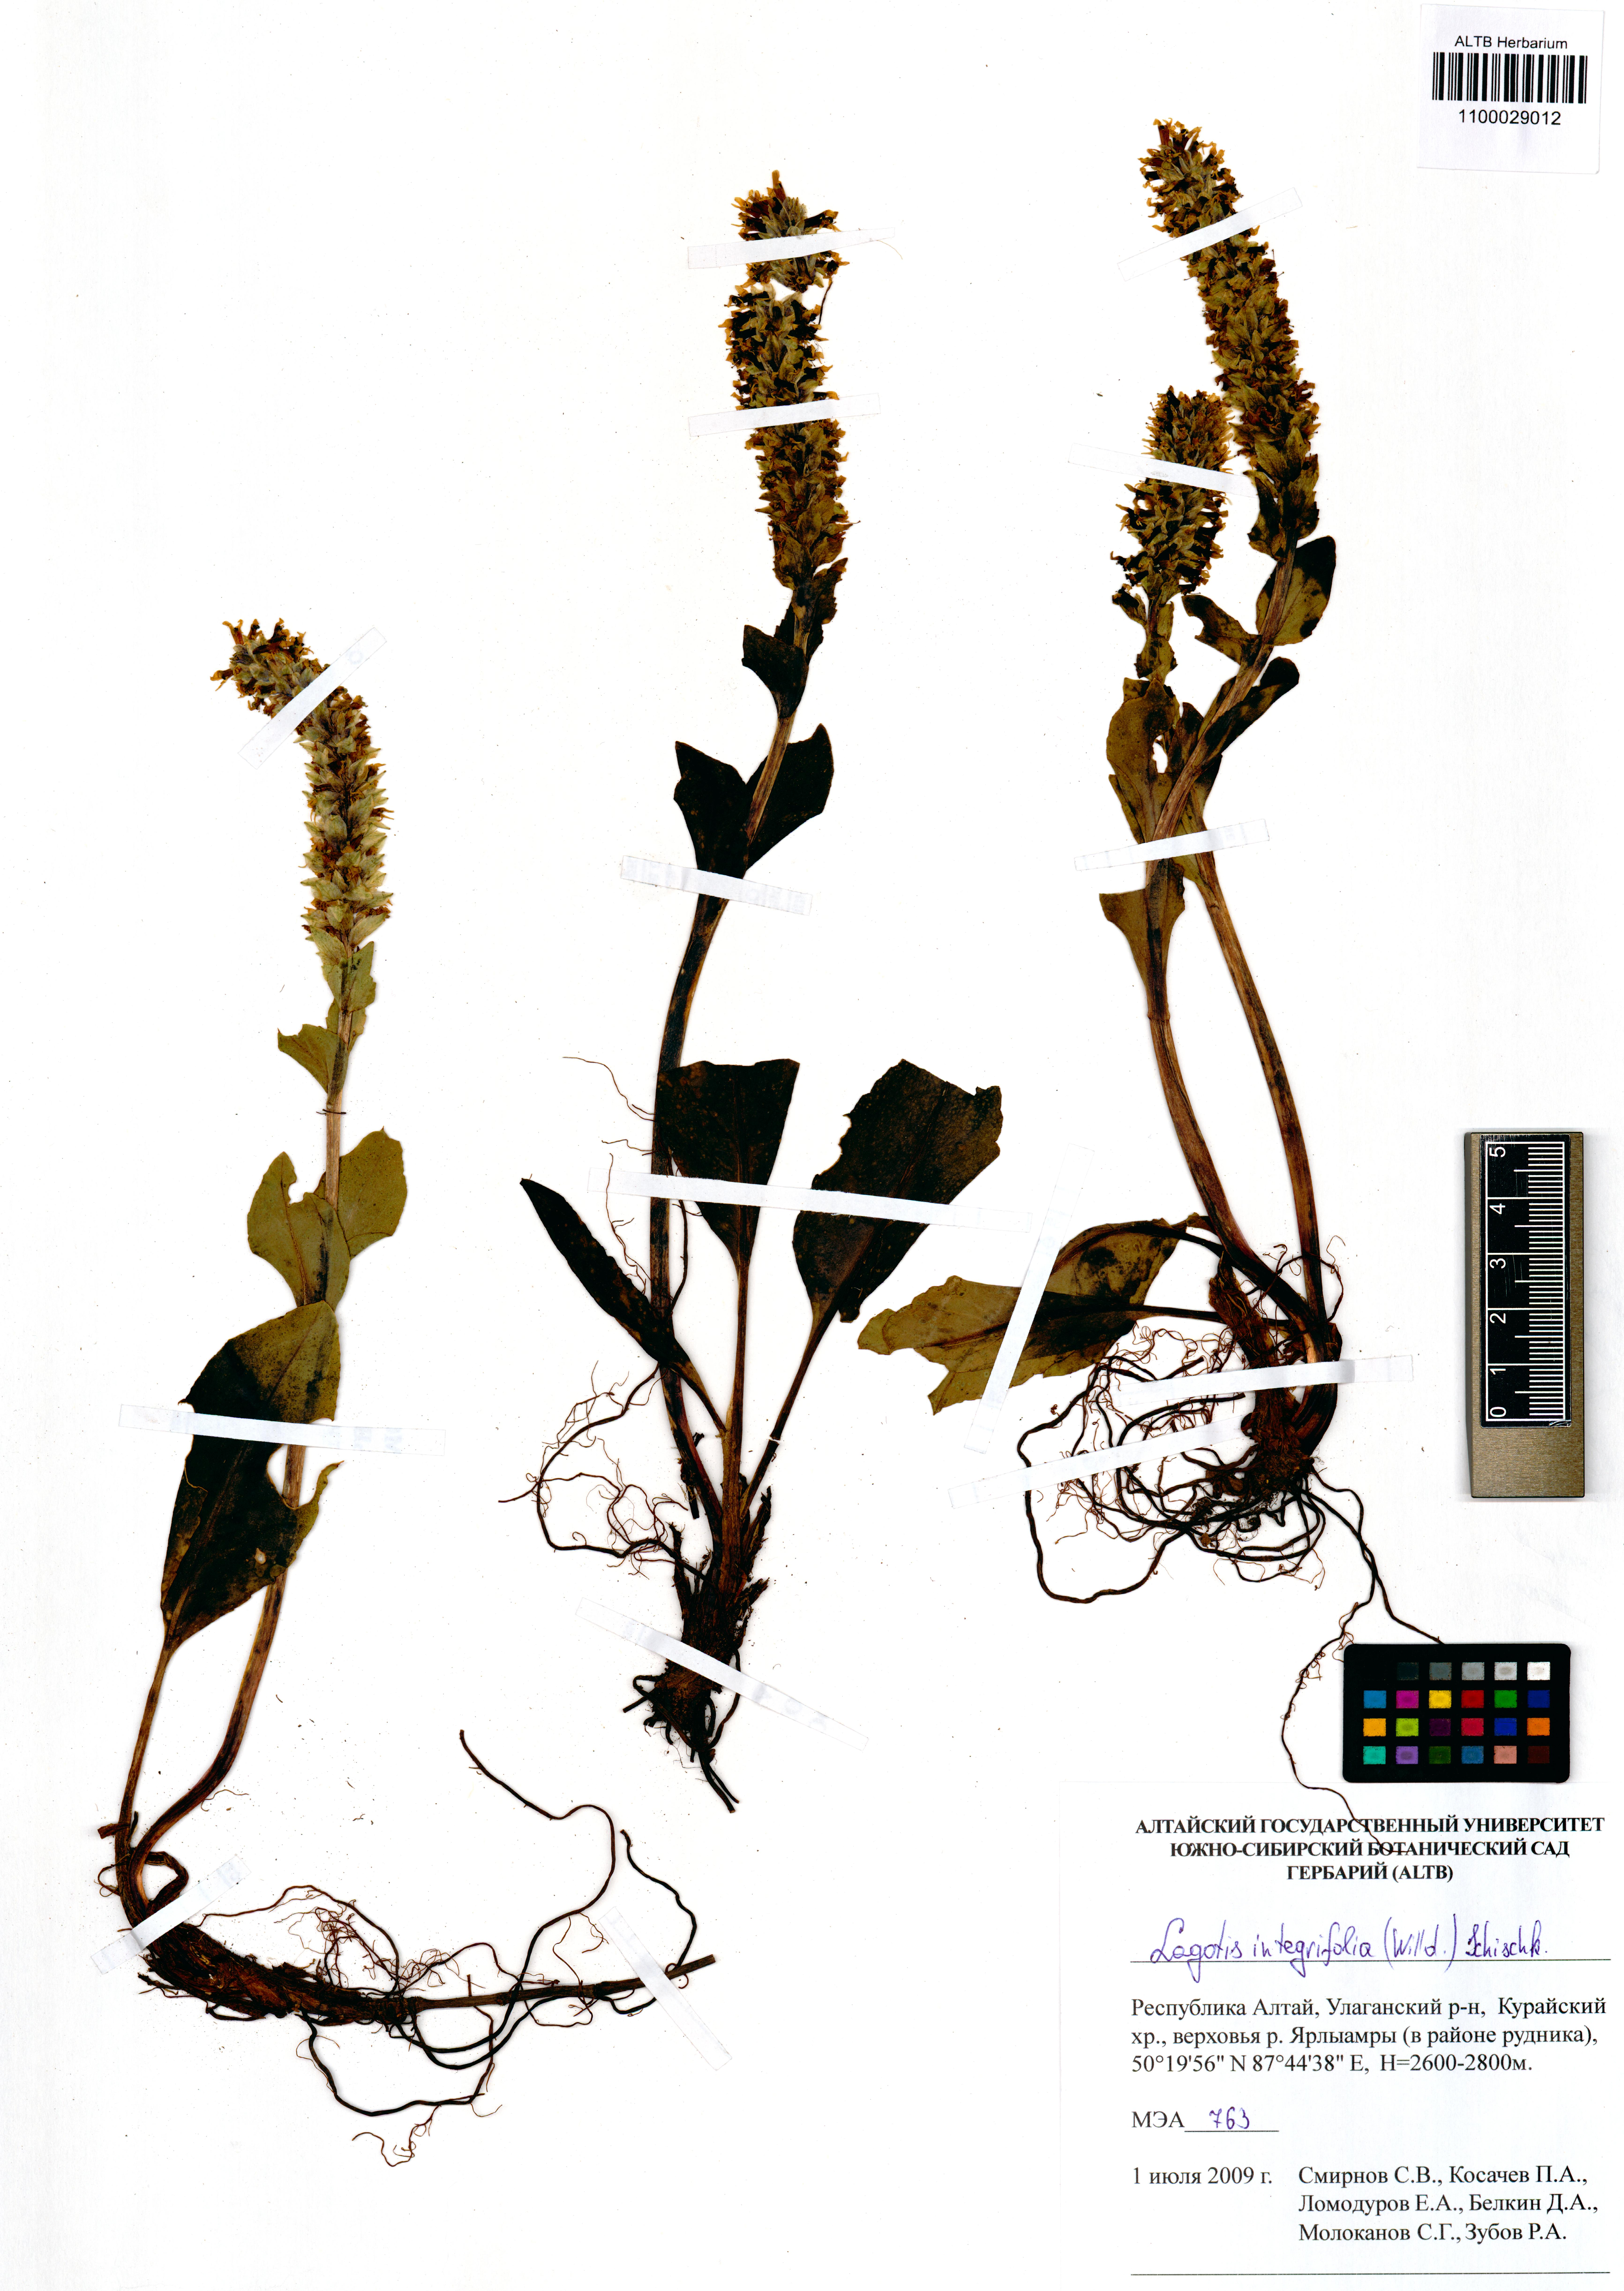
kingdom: Plantae
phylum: Tracheophyta
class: Magnoliopsida
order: Lamiales
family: Plantaginaceae
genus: Lagotis
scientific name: Lagotis integrifolia
